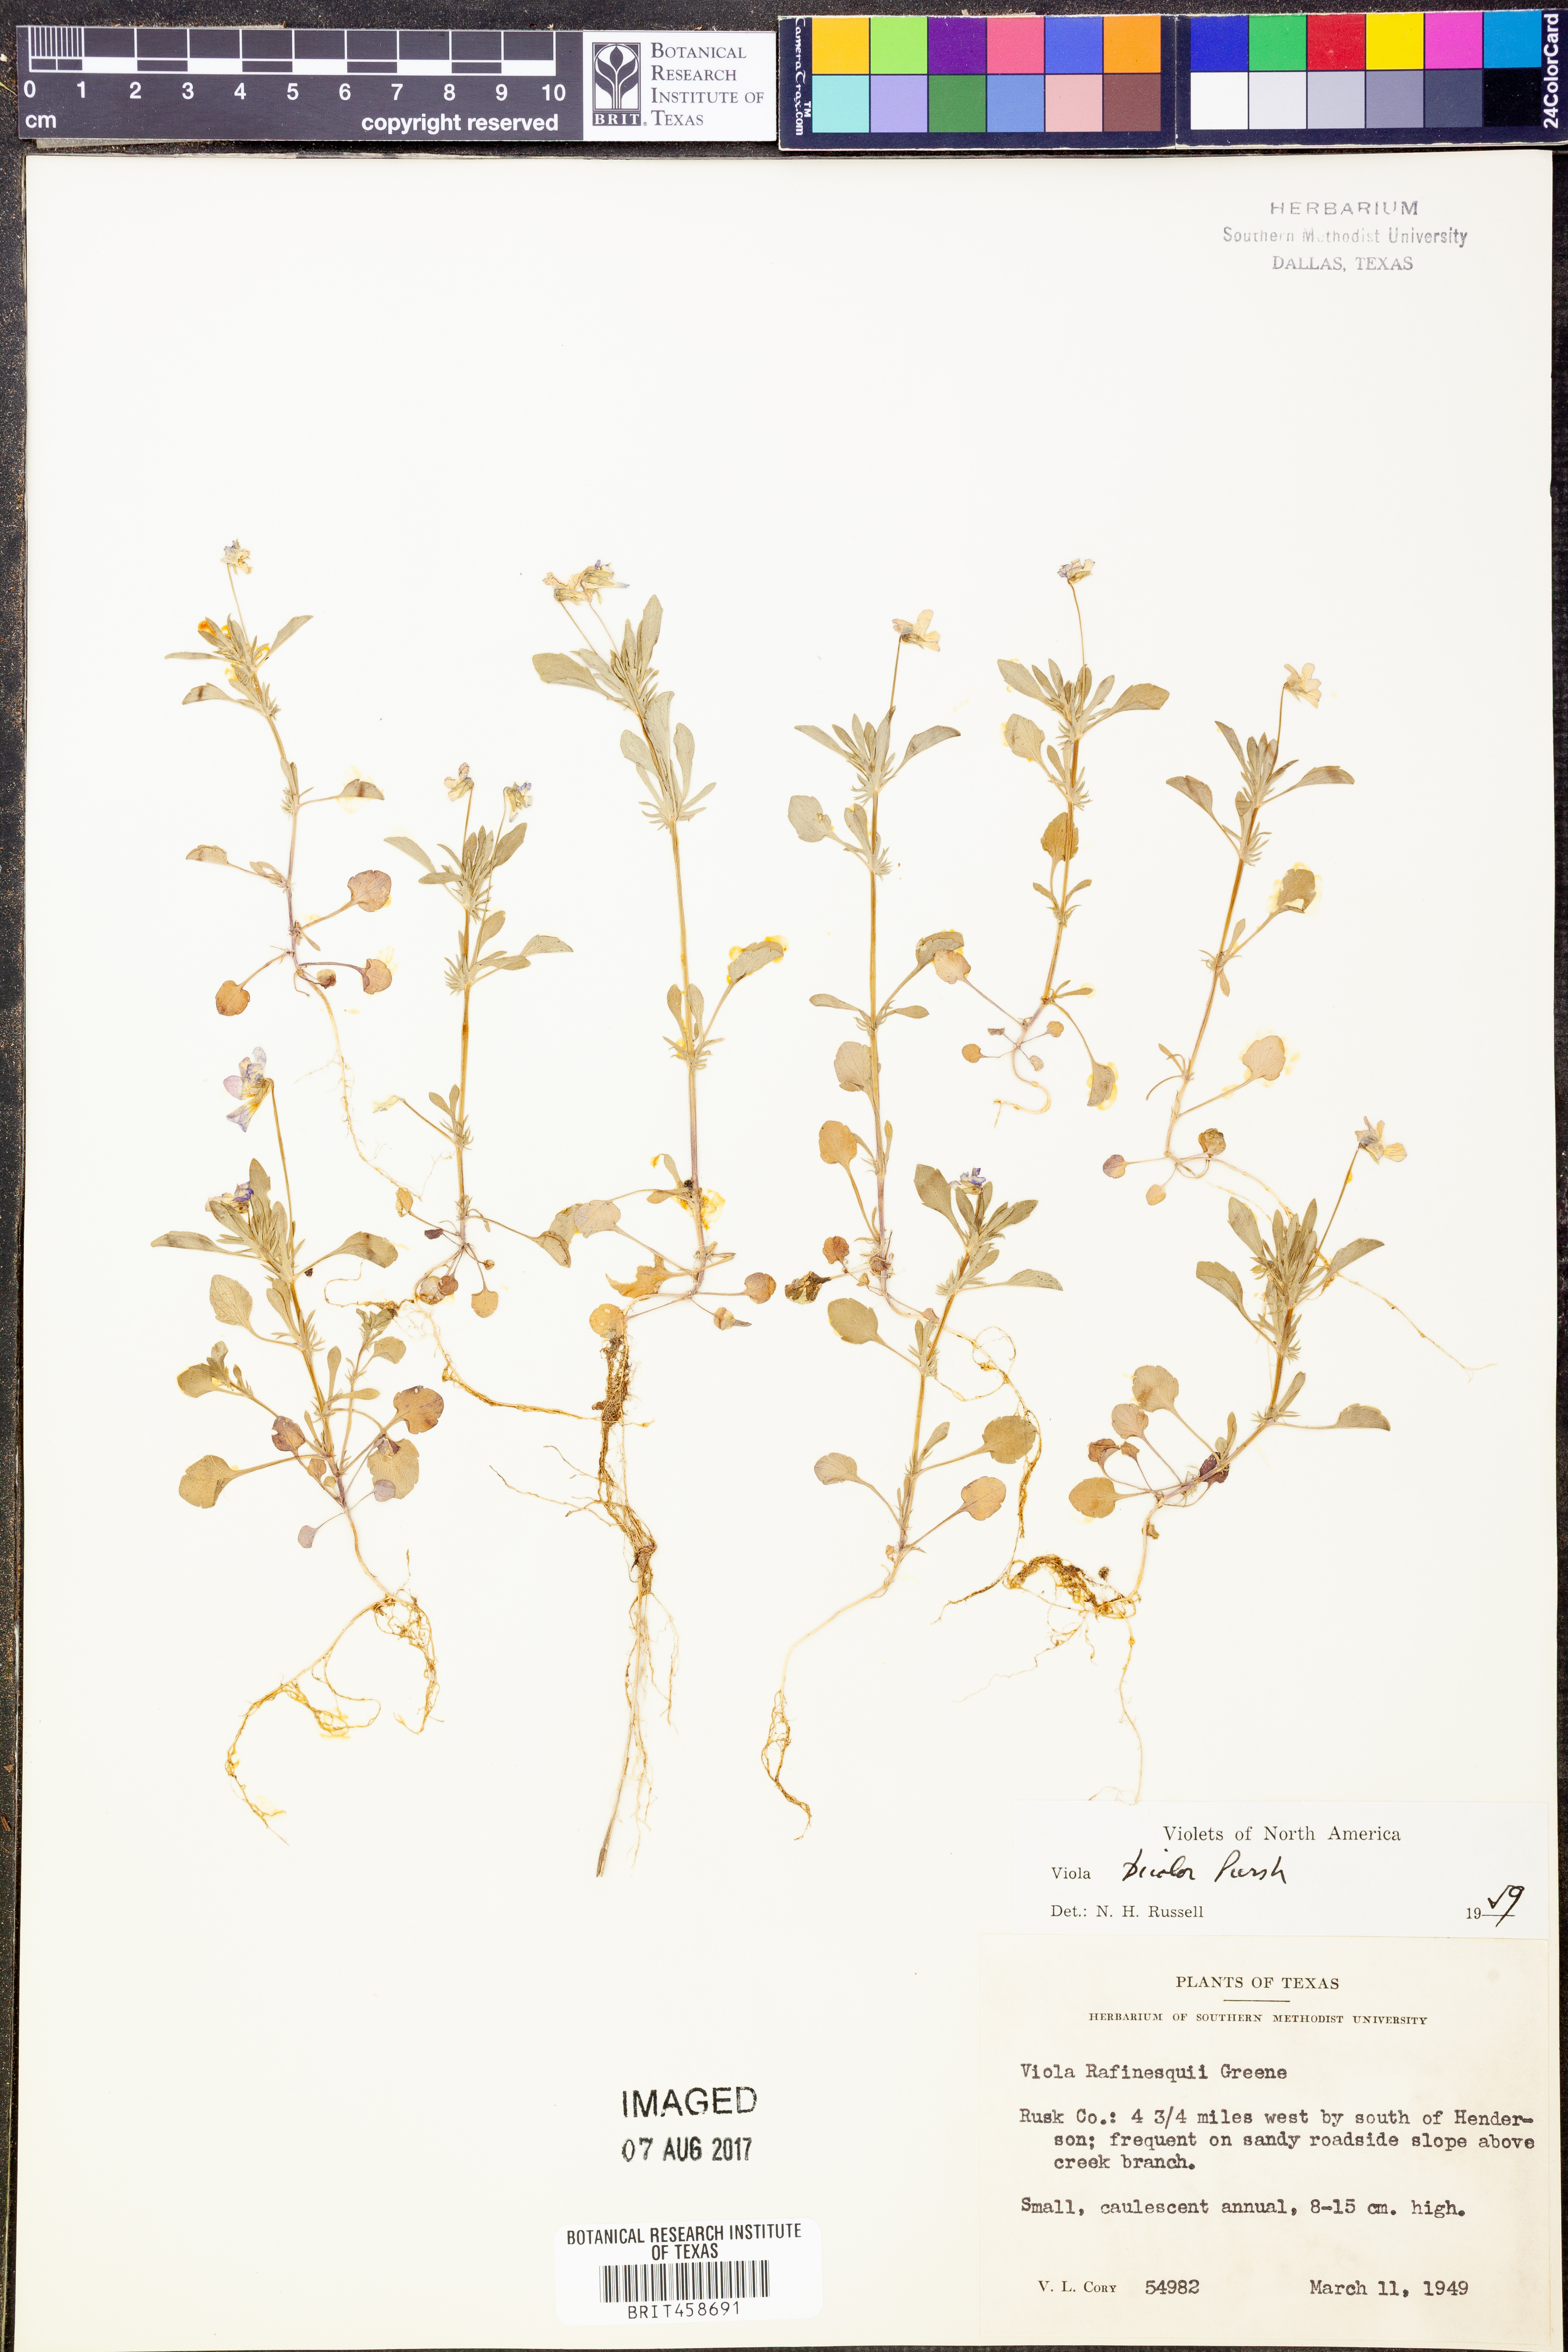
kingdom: Plantae
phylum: Tracheophyta
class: Magnoliopsida
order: Malpighiales
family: Violaceae
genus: Viola
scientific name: Viola rafinesquei
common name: American field pansy
